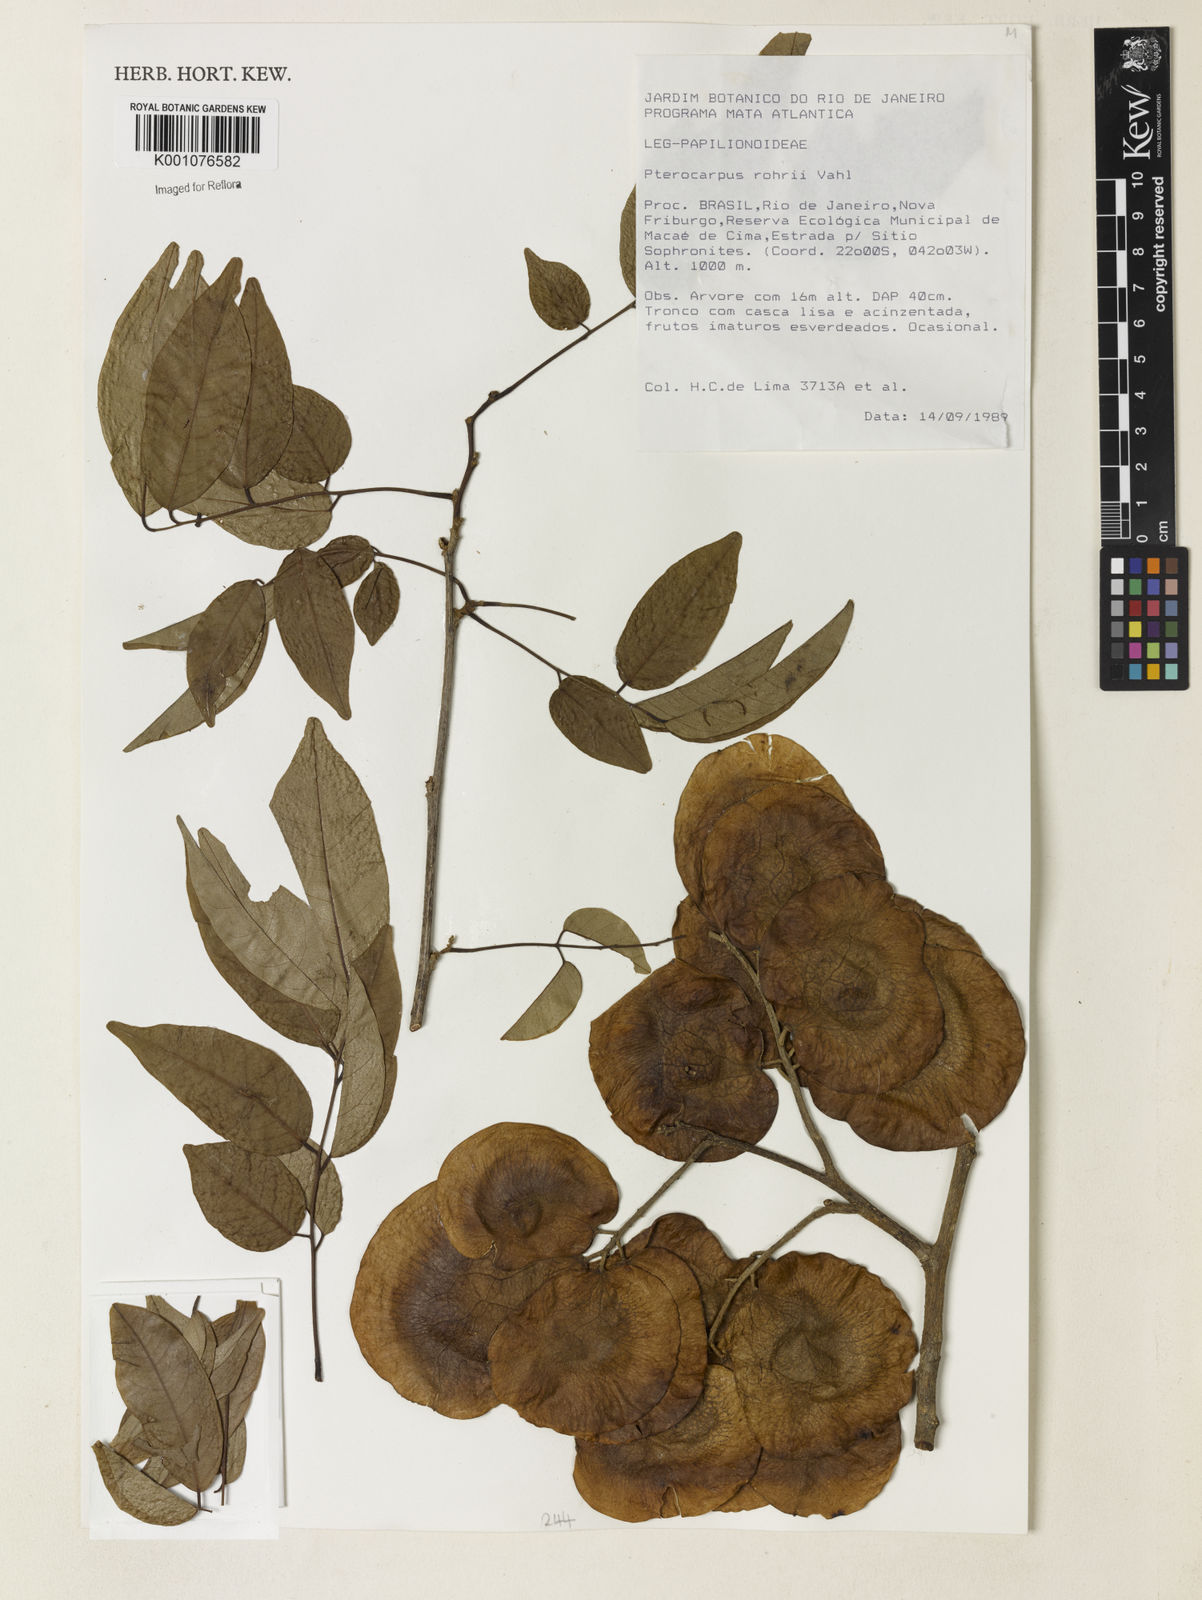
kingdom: Plantae
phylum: Tracheophyta
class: Magnoliopsida
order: Fabales
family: Fabaceae
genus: Pterocarpus
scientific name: Pterocarpus rohrii
